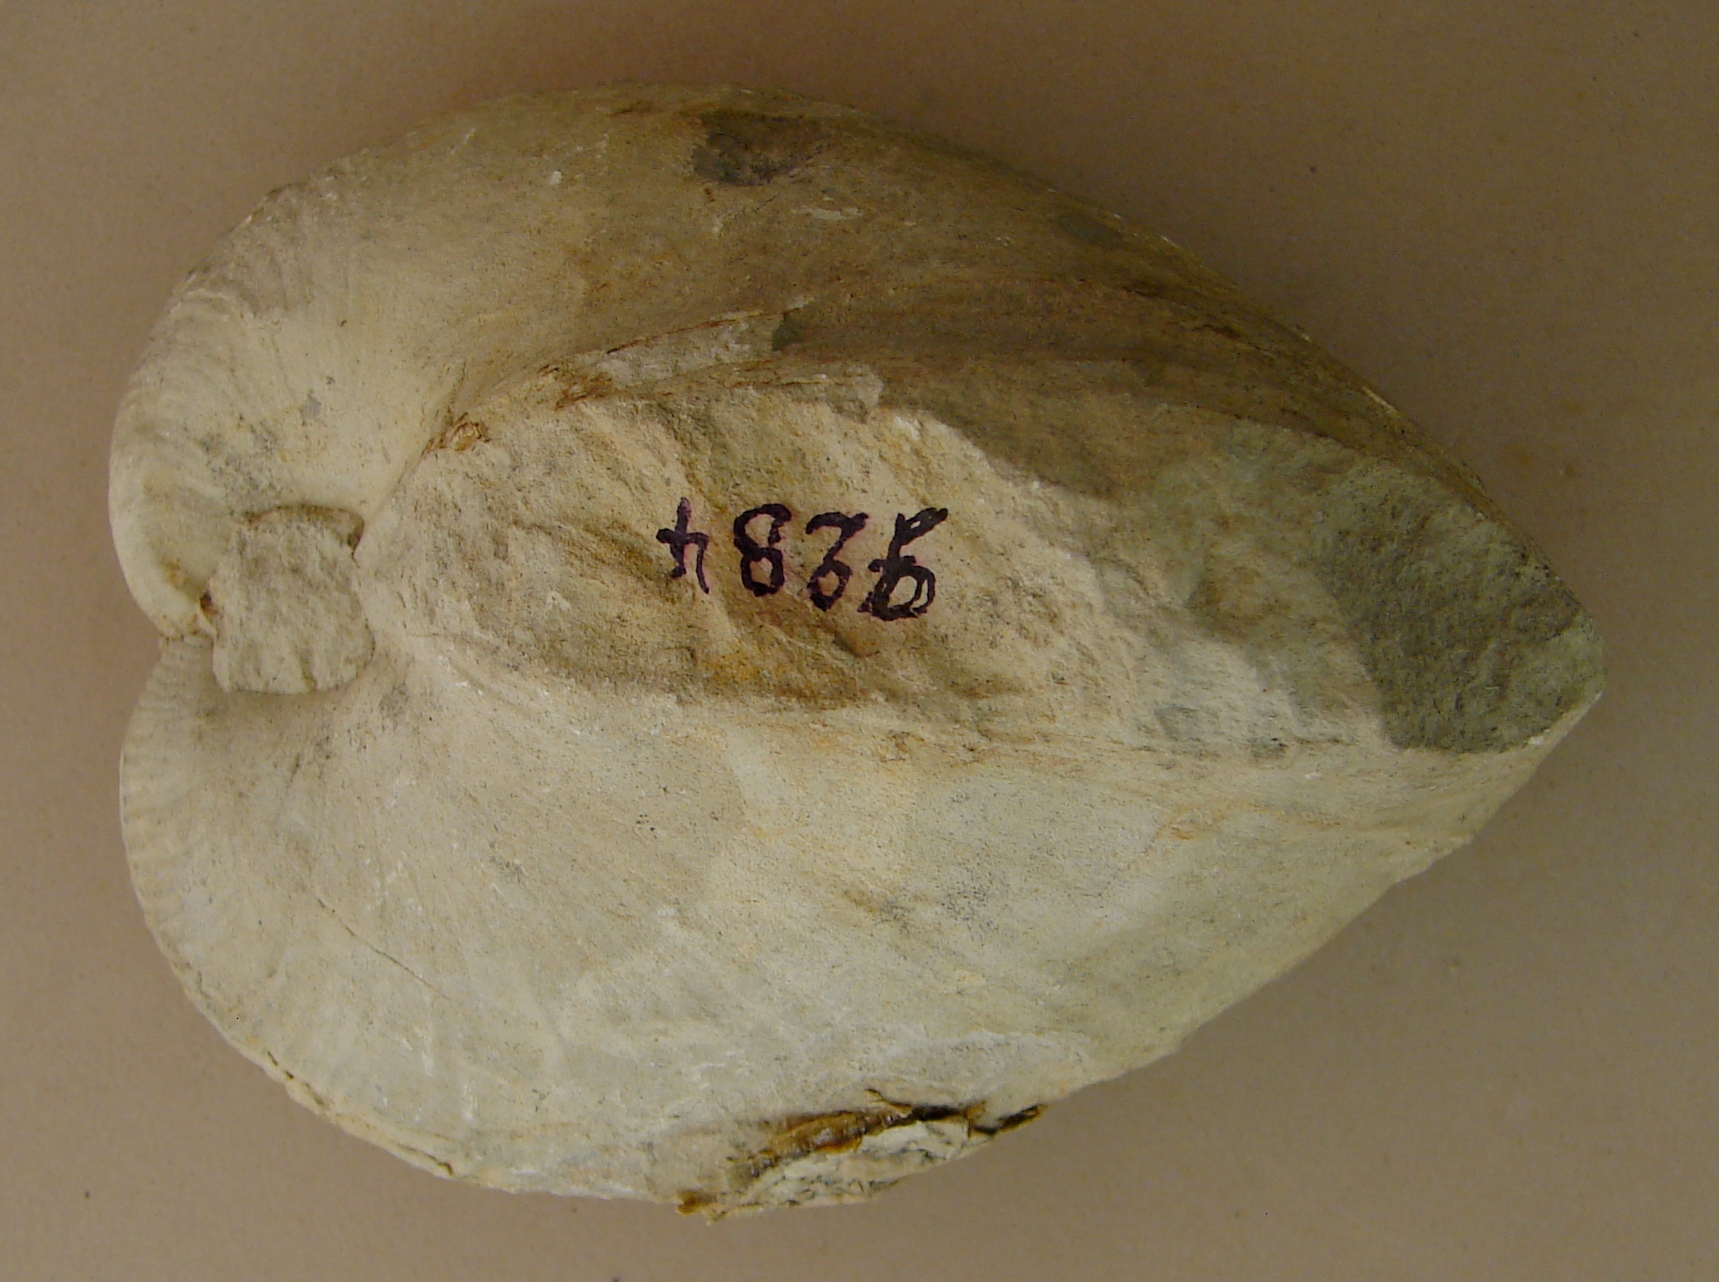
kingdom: Animalia
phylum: Echinodermata
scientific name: Echinodermata
